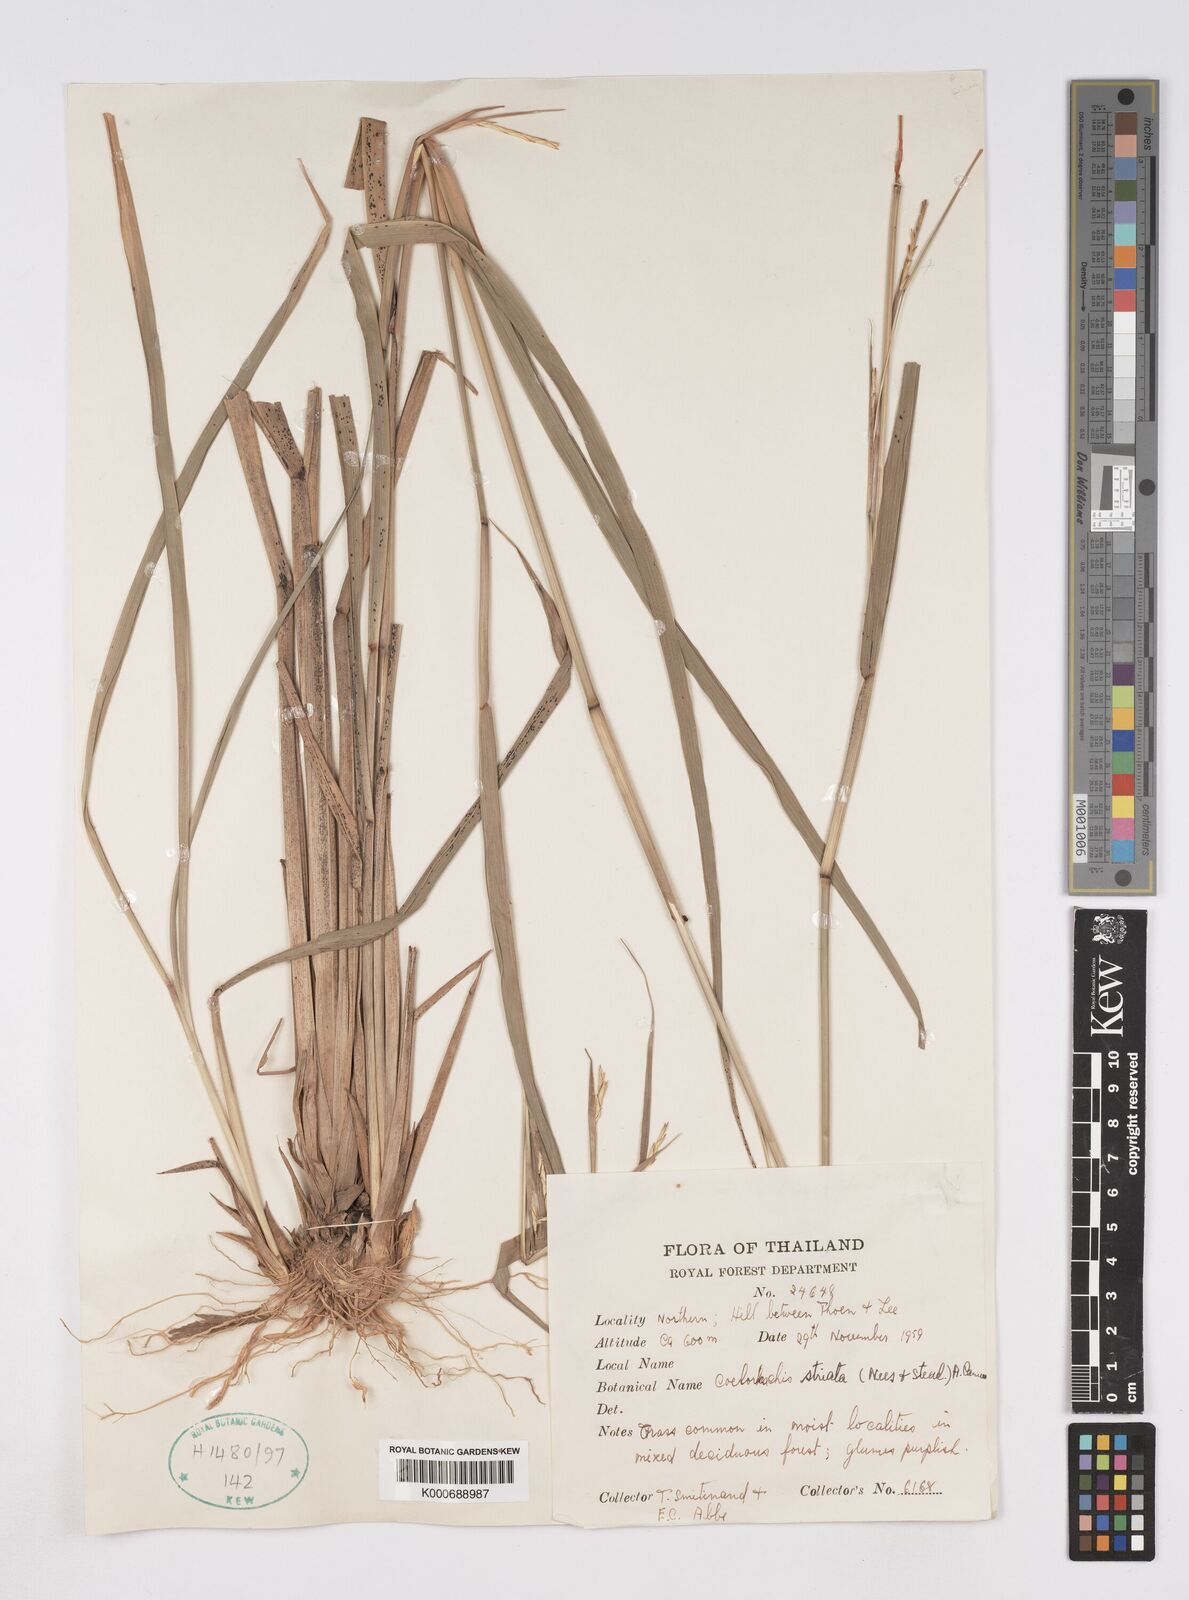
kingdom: Plantae
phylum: Tracheophyta
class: Liliopsida
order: Poales
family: Poaceae
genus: Rottboellia
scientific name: Rottboellia striata
